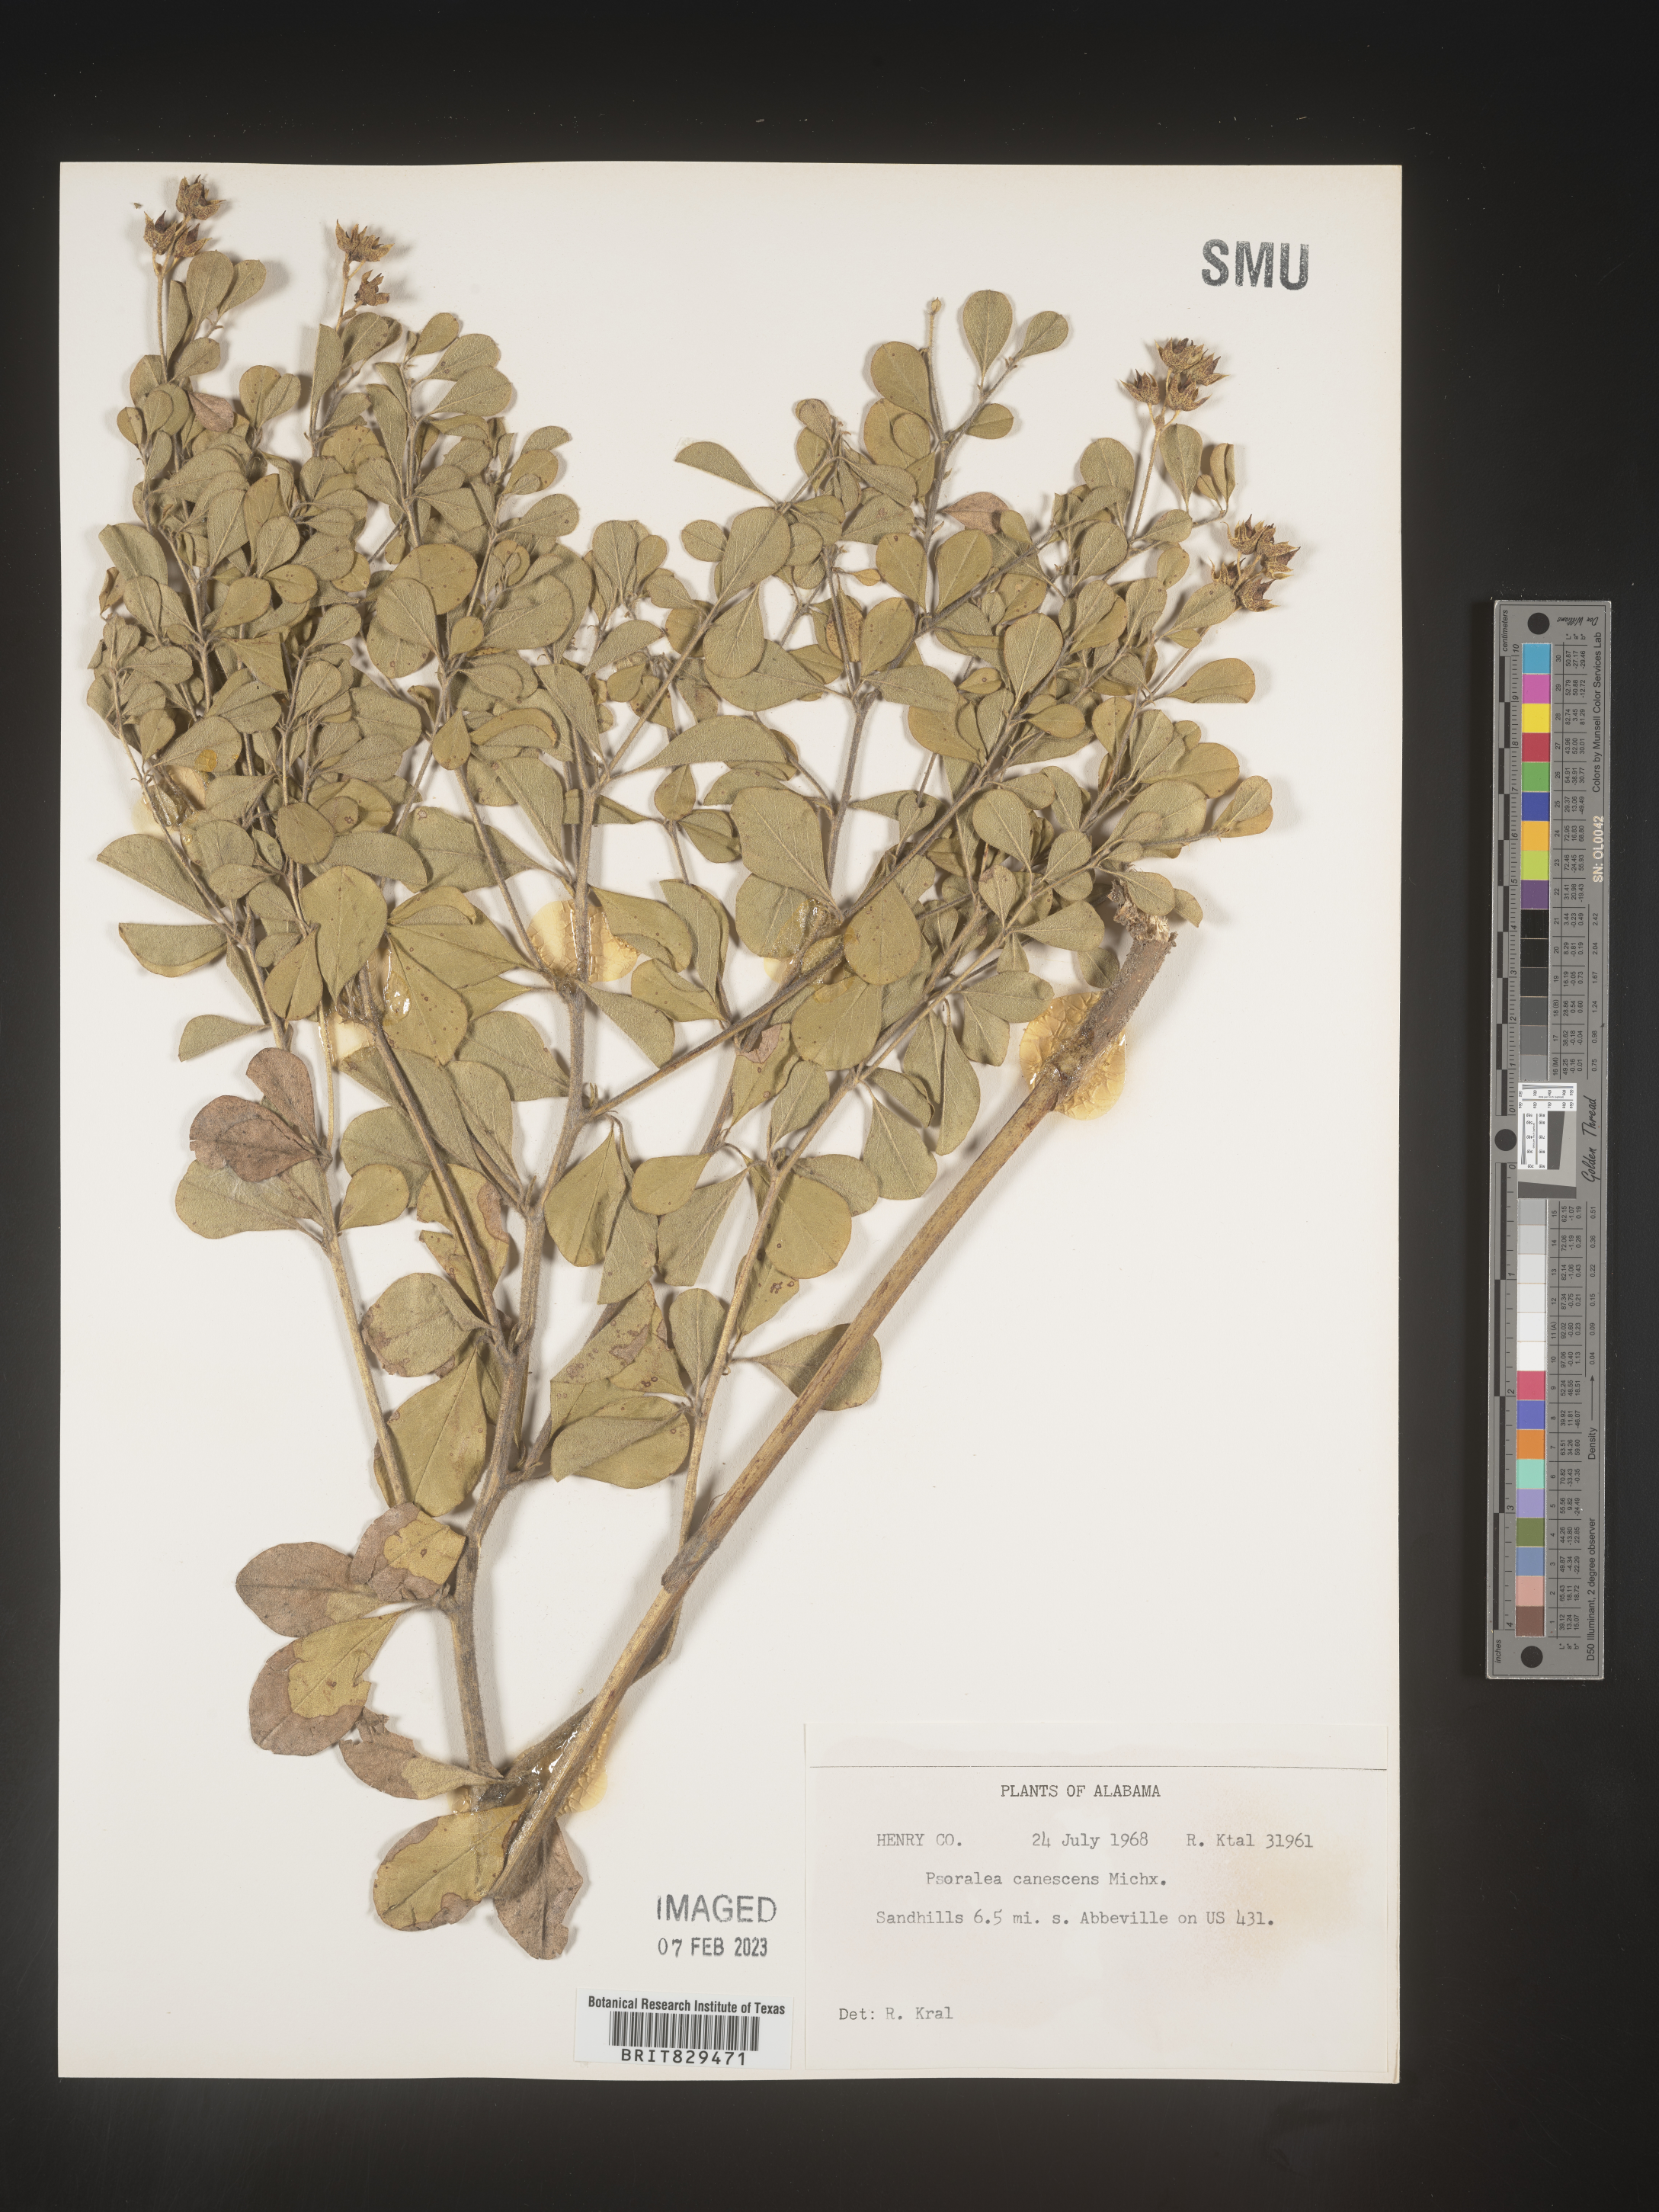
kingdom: Plantae
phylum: Tracheophyta
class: Magnoliopsida
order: Fabales
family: Fabaceae
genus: Pediomelum
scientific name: Pediomelum canescens
